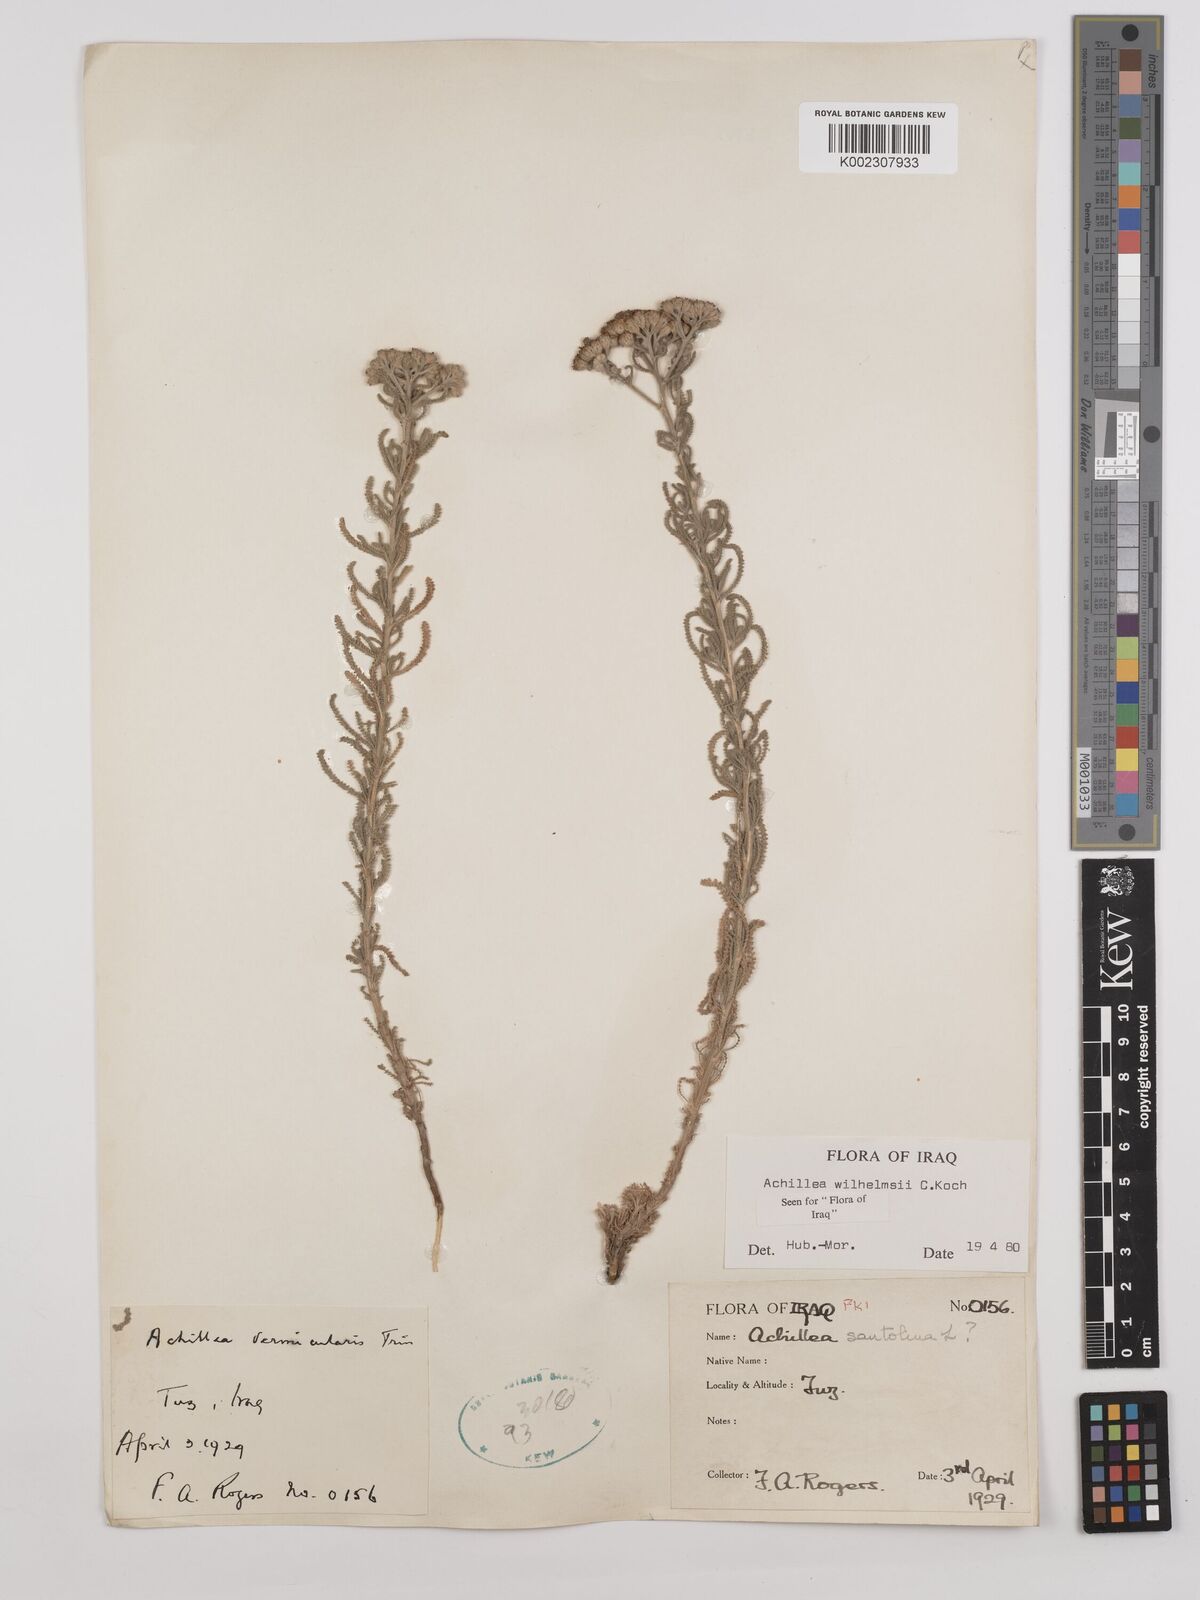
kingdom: Plantae
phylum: Tracheophyta
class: Magnoliopsida
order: Asterales
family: Asteraceae
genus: Achillea
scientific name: Achillea wilhelmsii
